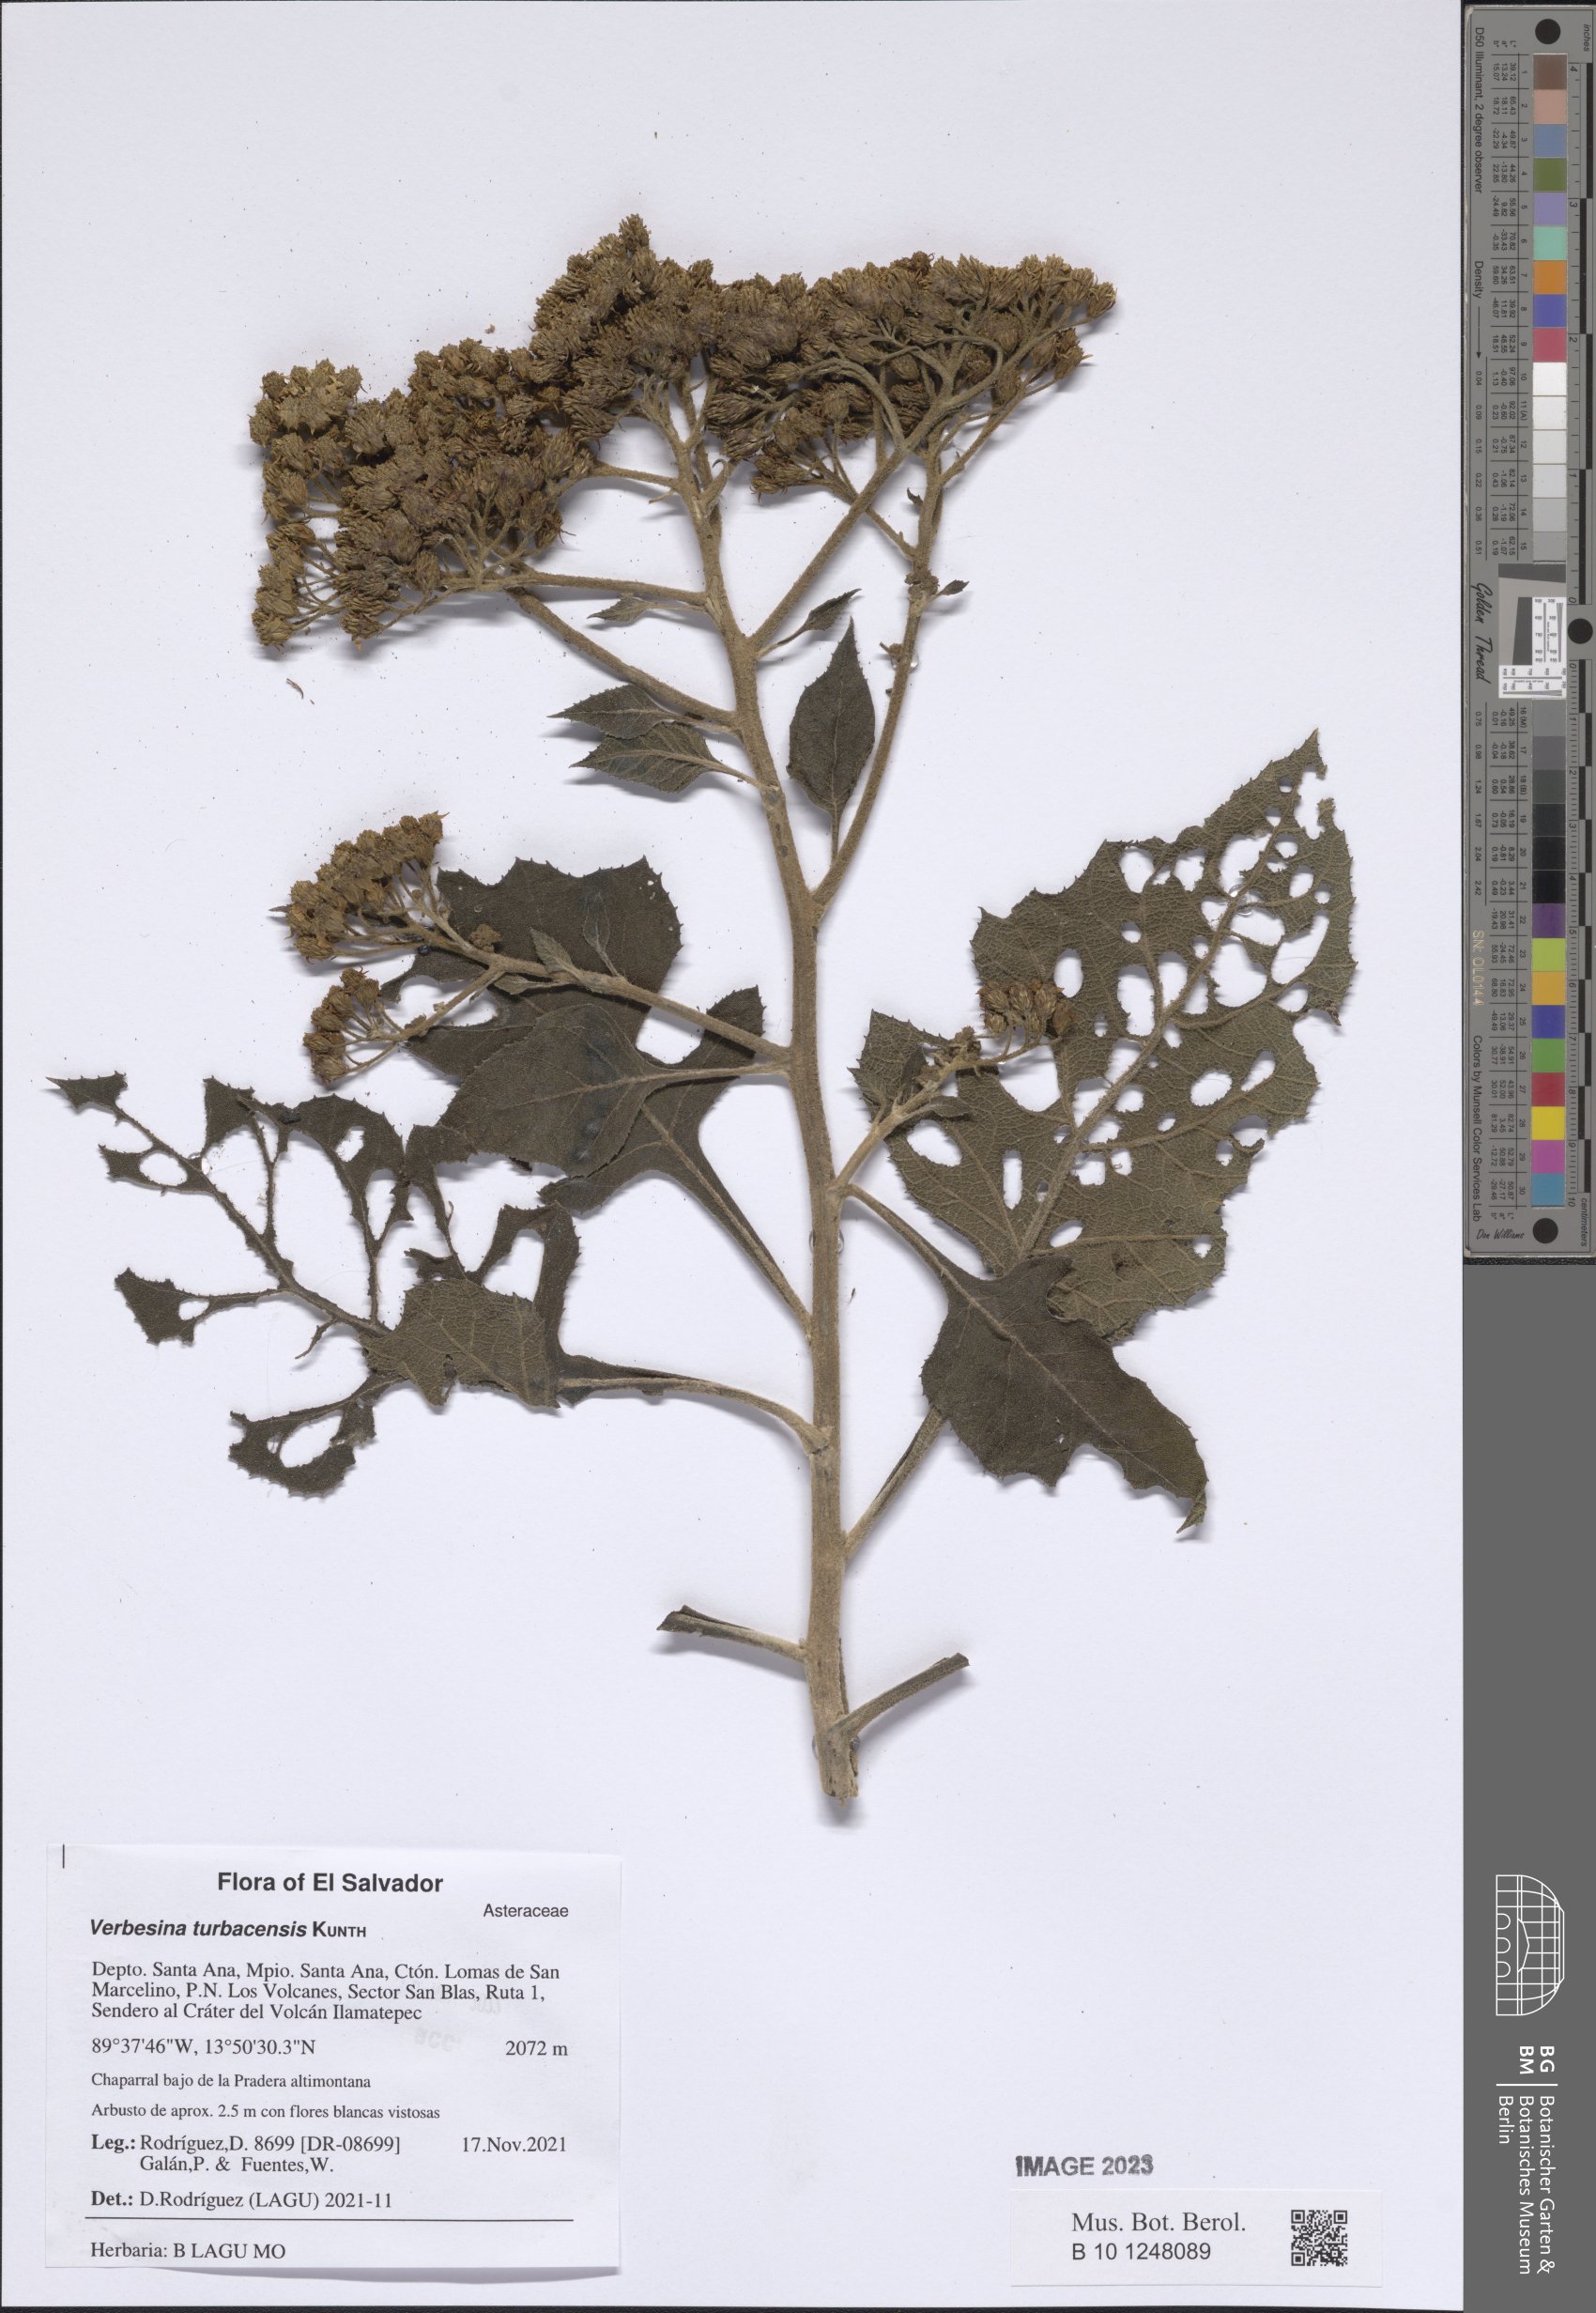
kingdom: Plantae
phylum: Tracheophyta
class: Magnoliopsida
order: Asterales
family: Asteraceae
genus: Verbesina
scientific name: Verbesina turbacensis
